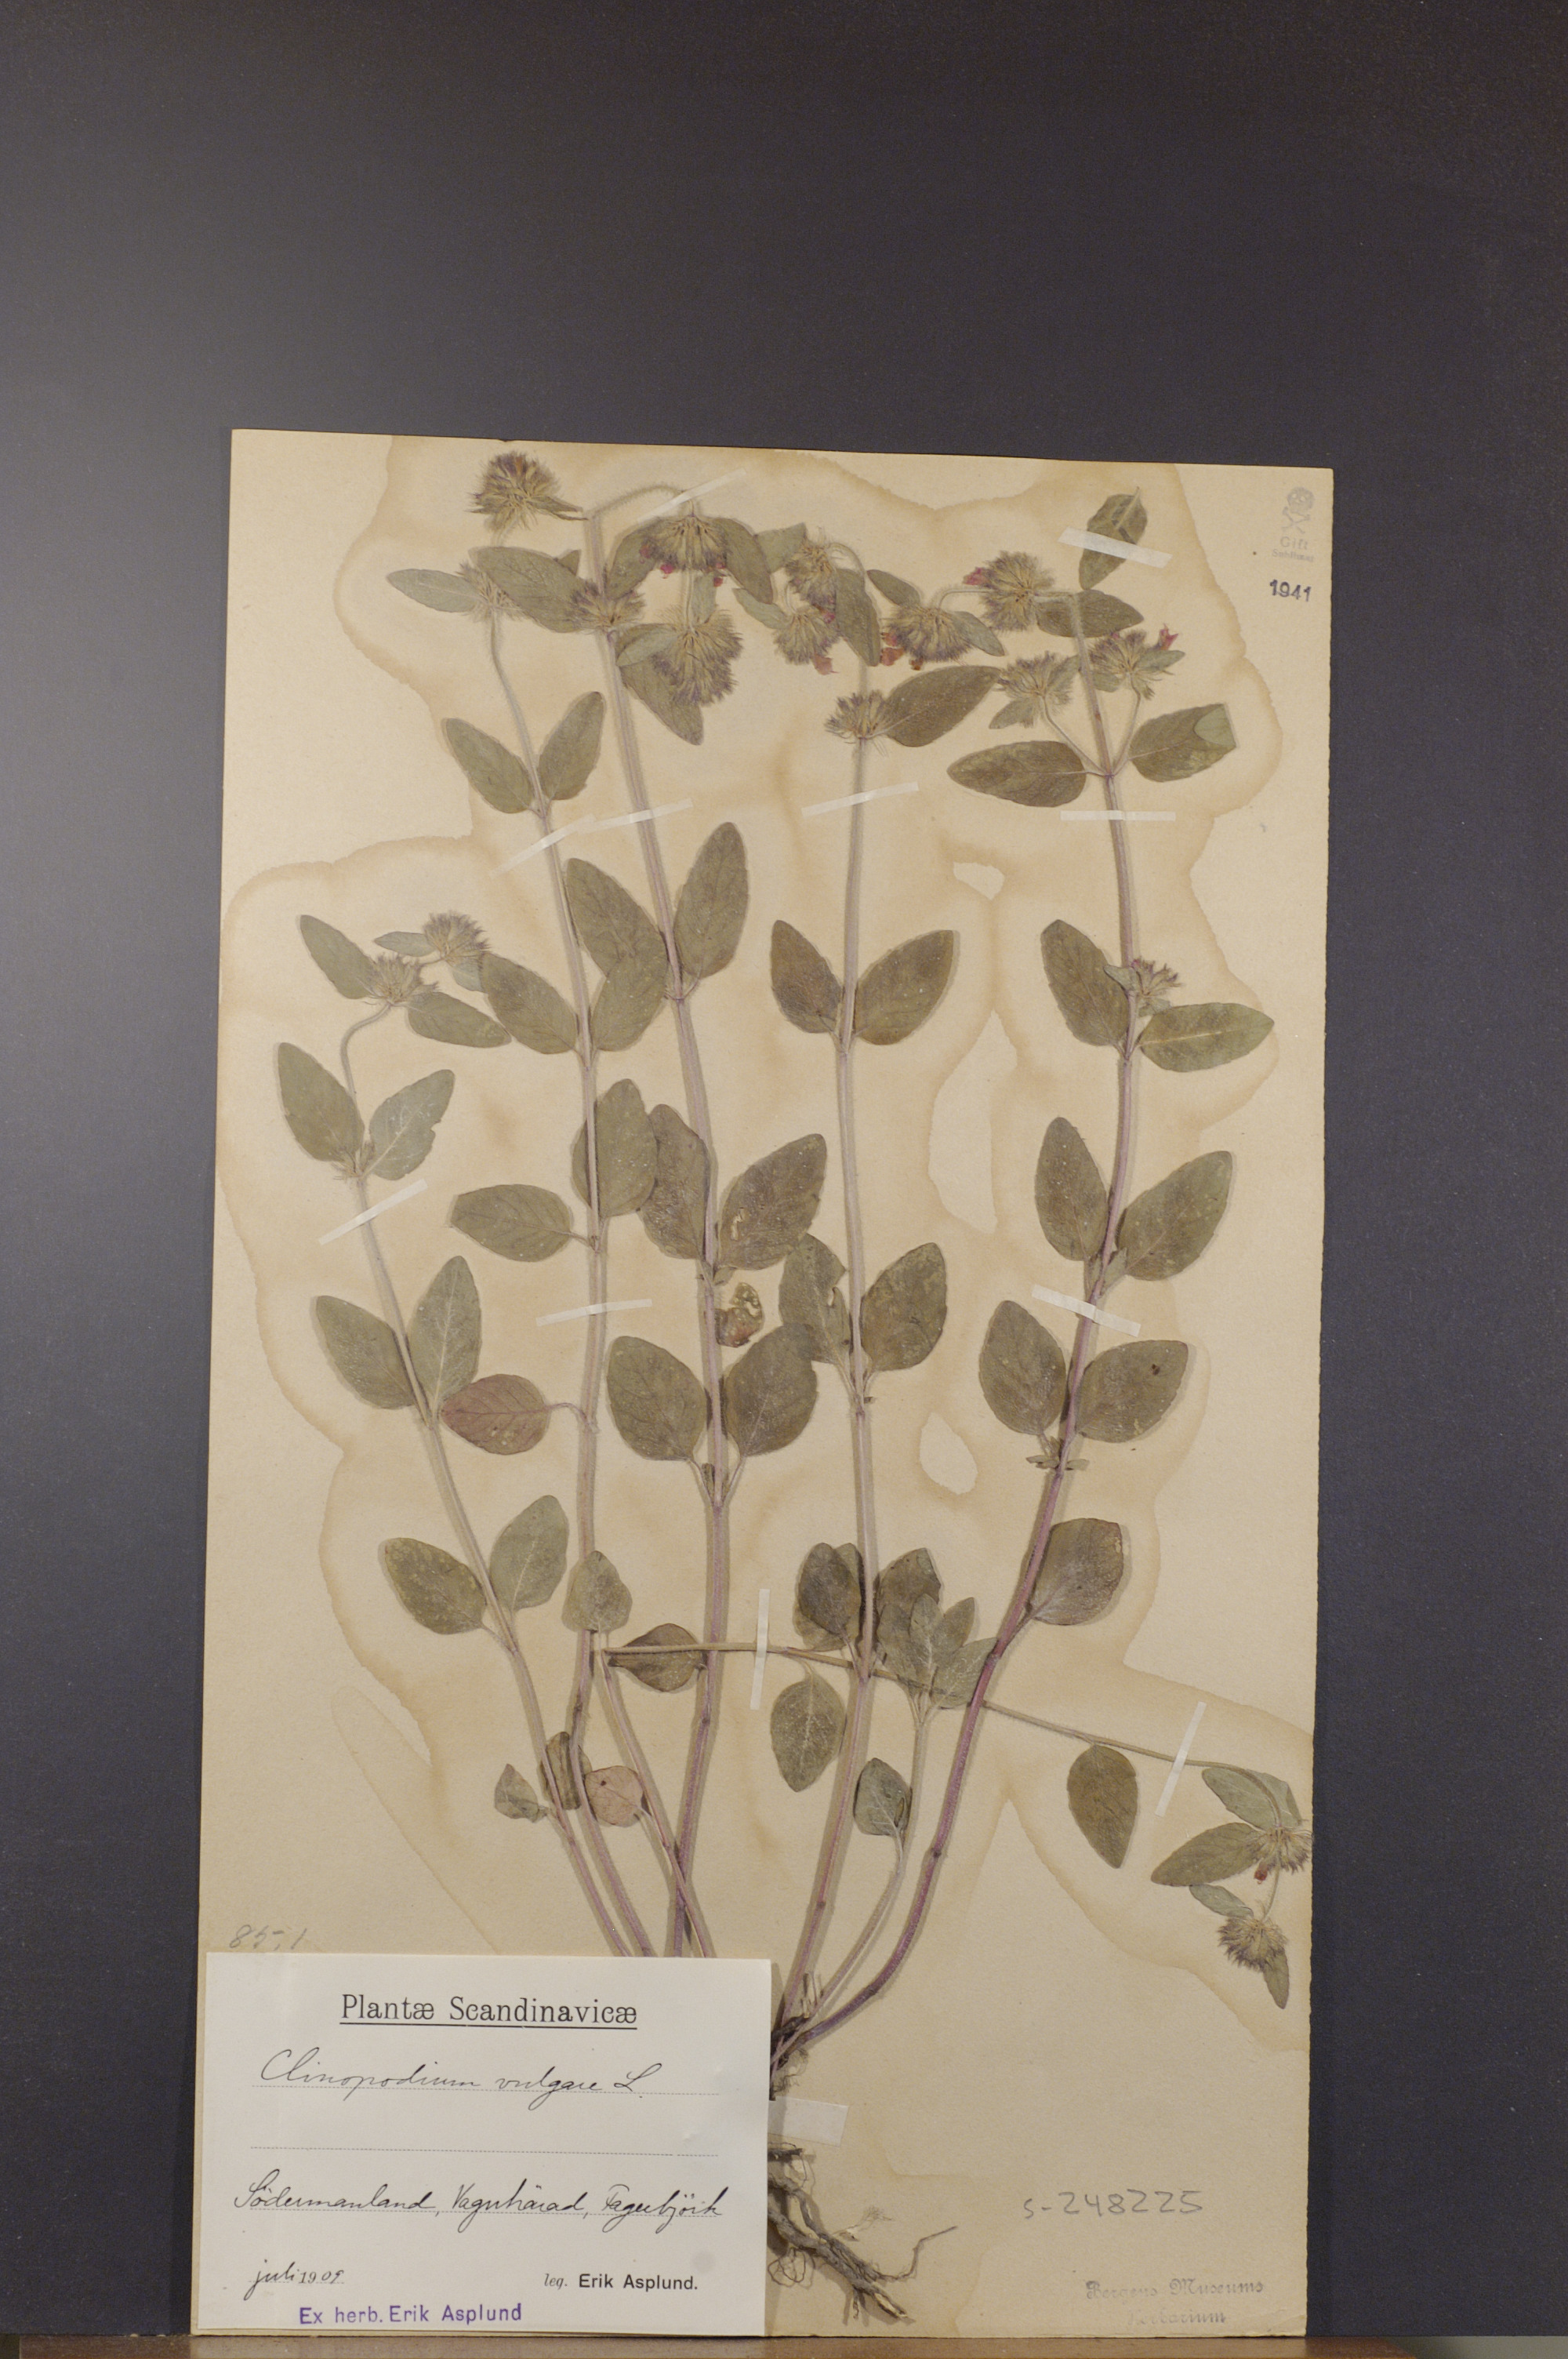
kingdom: Plantae
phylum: Tracheophyta
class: Magnoliopsida
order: Lamiales
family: Lamiaceae
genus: Clinopodium
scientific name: Clinopodium vulgare
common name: Wild basil
